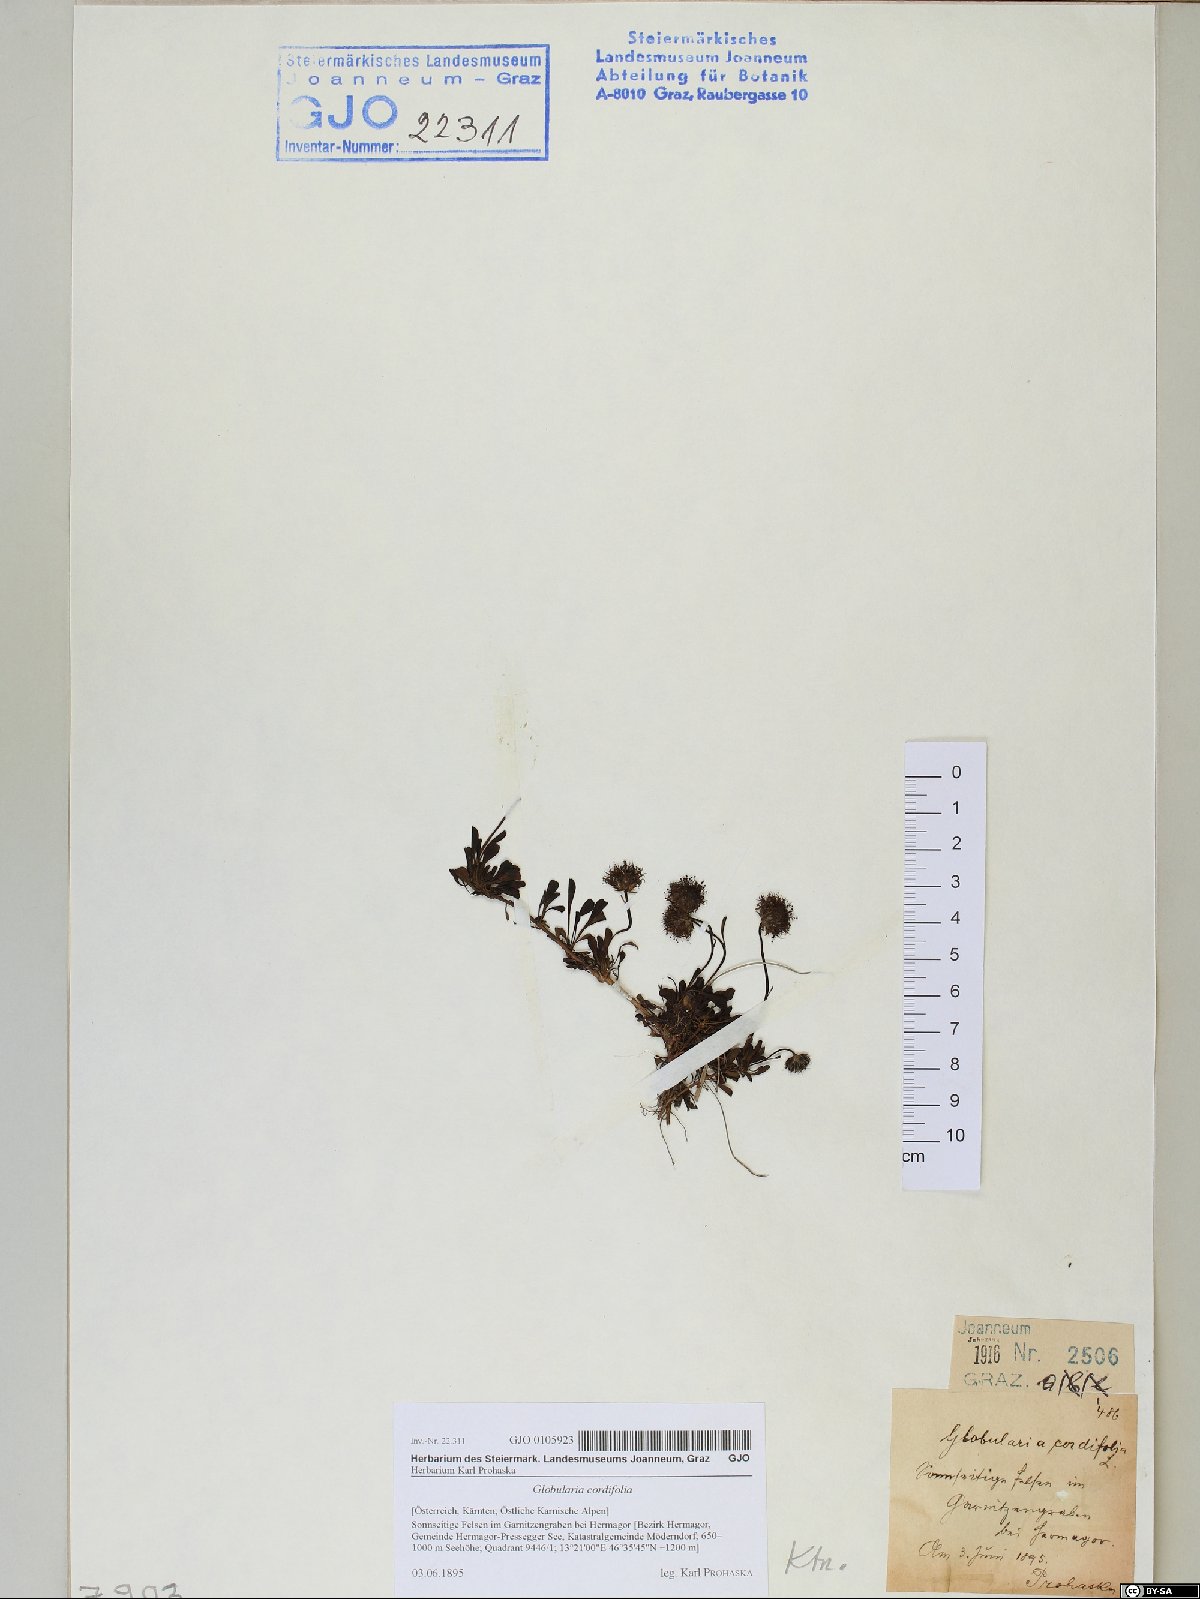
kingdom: Plantae
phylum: Tracheophyta
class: Magnoliopsida
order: Lamiales
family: Plantaginaceae
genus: Globularia
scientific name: Globularia cordifolia
